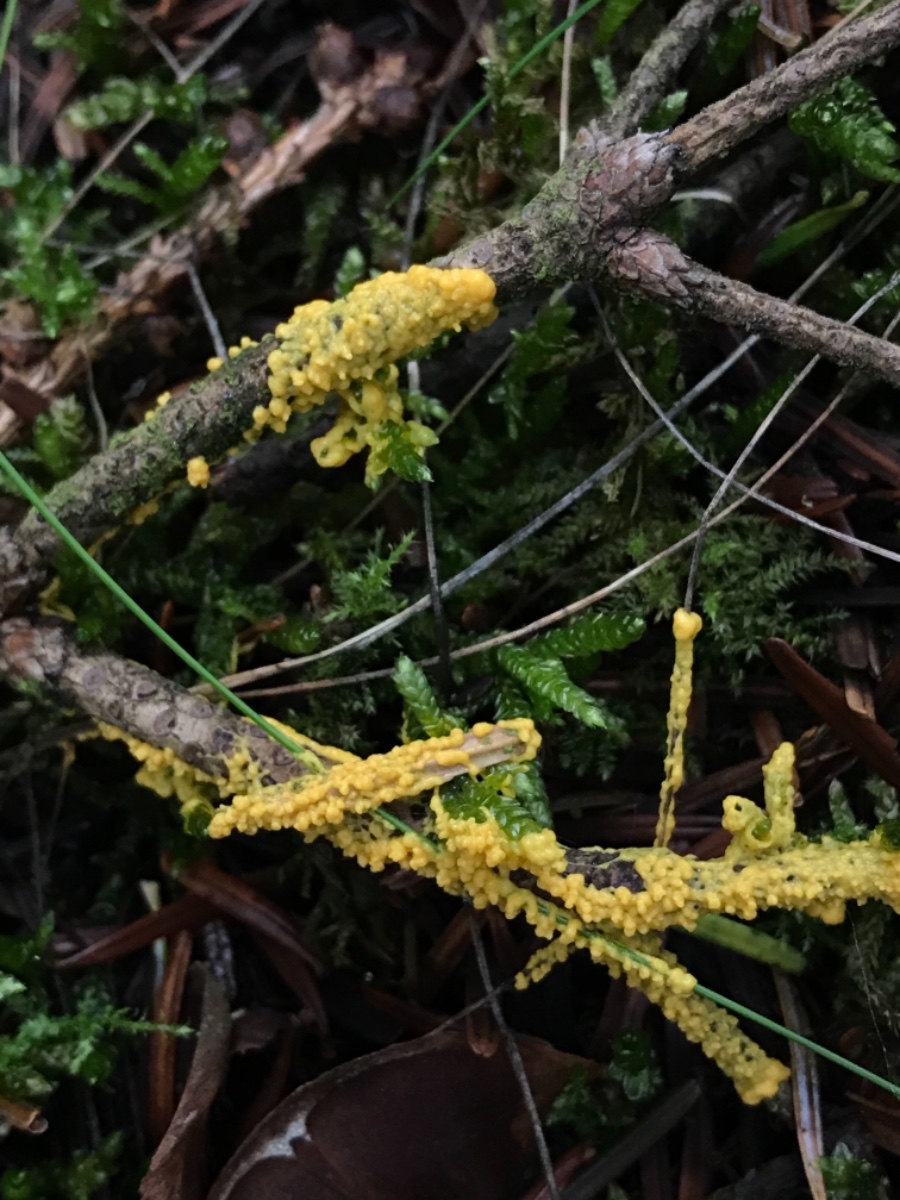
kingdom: Protozoa
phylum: Mycetozoa
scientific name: Mycetozoa
